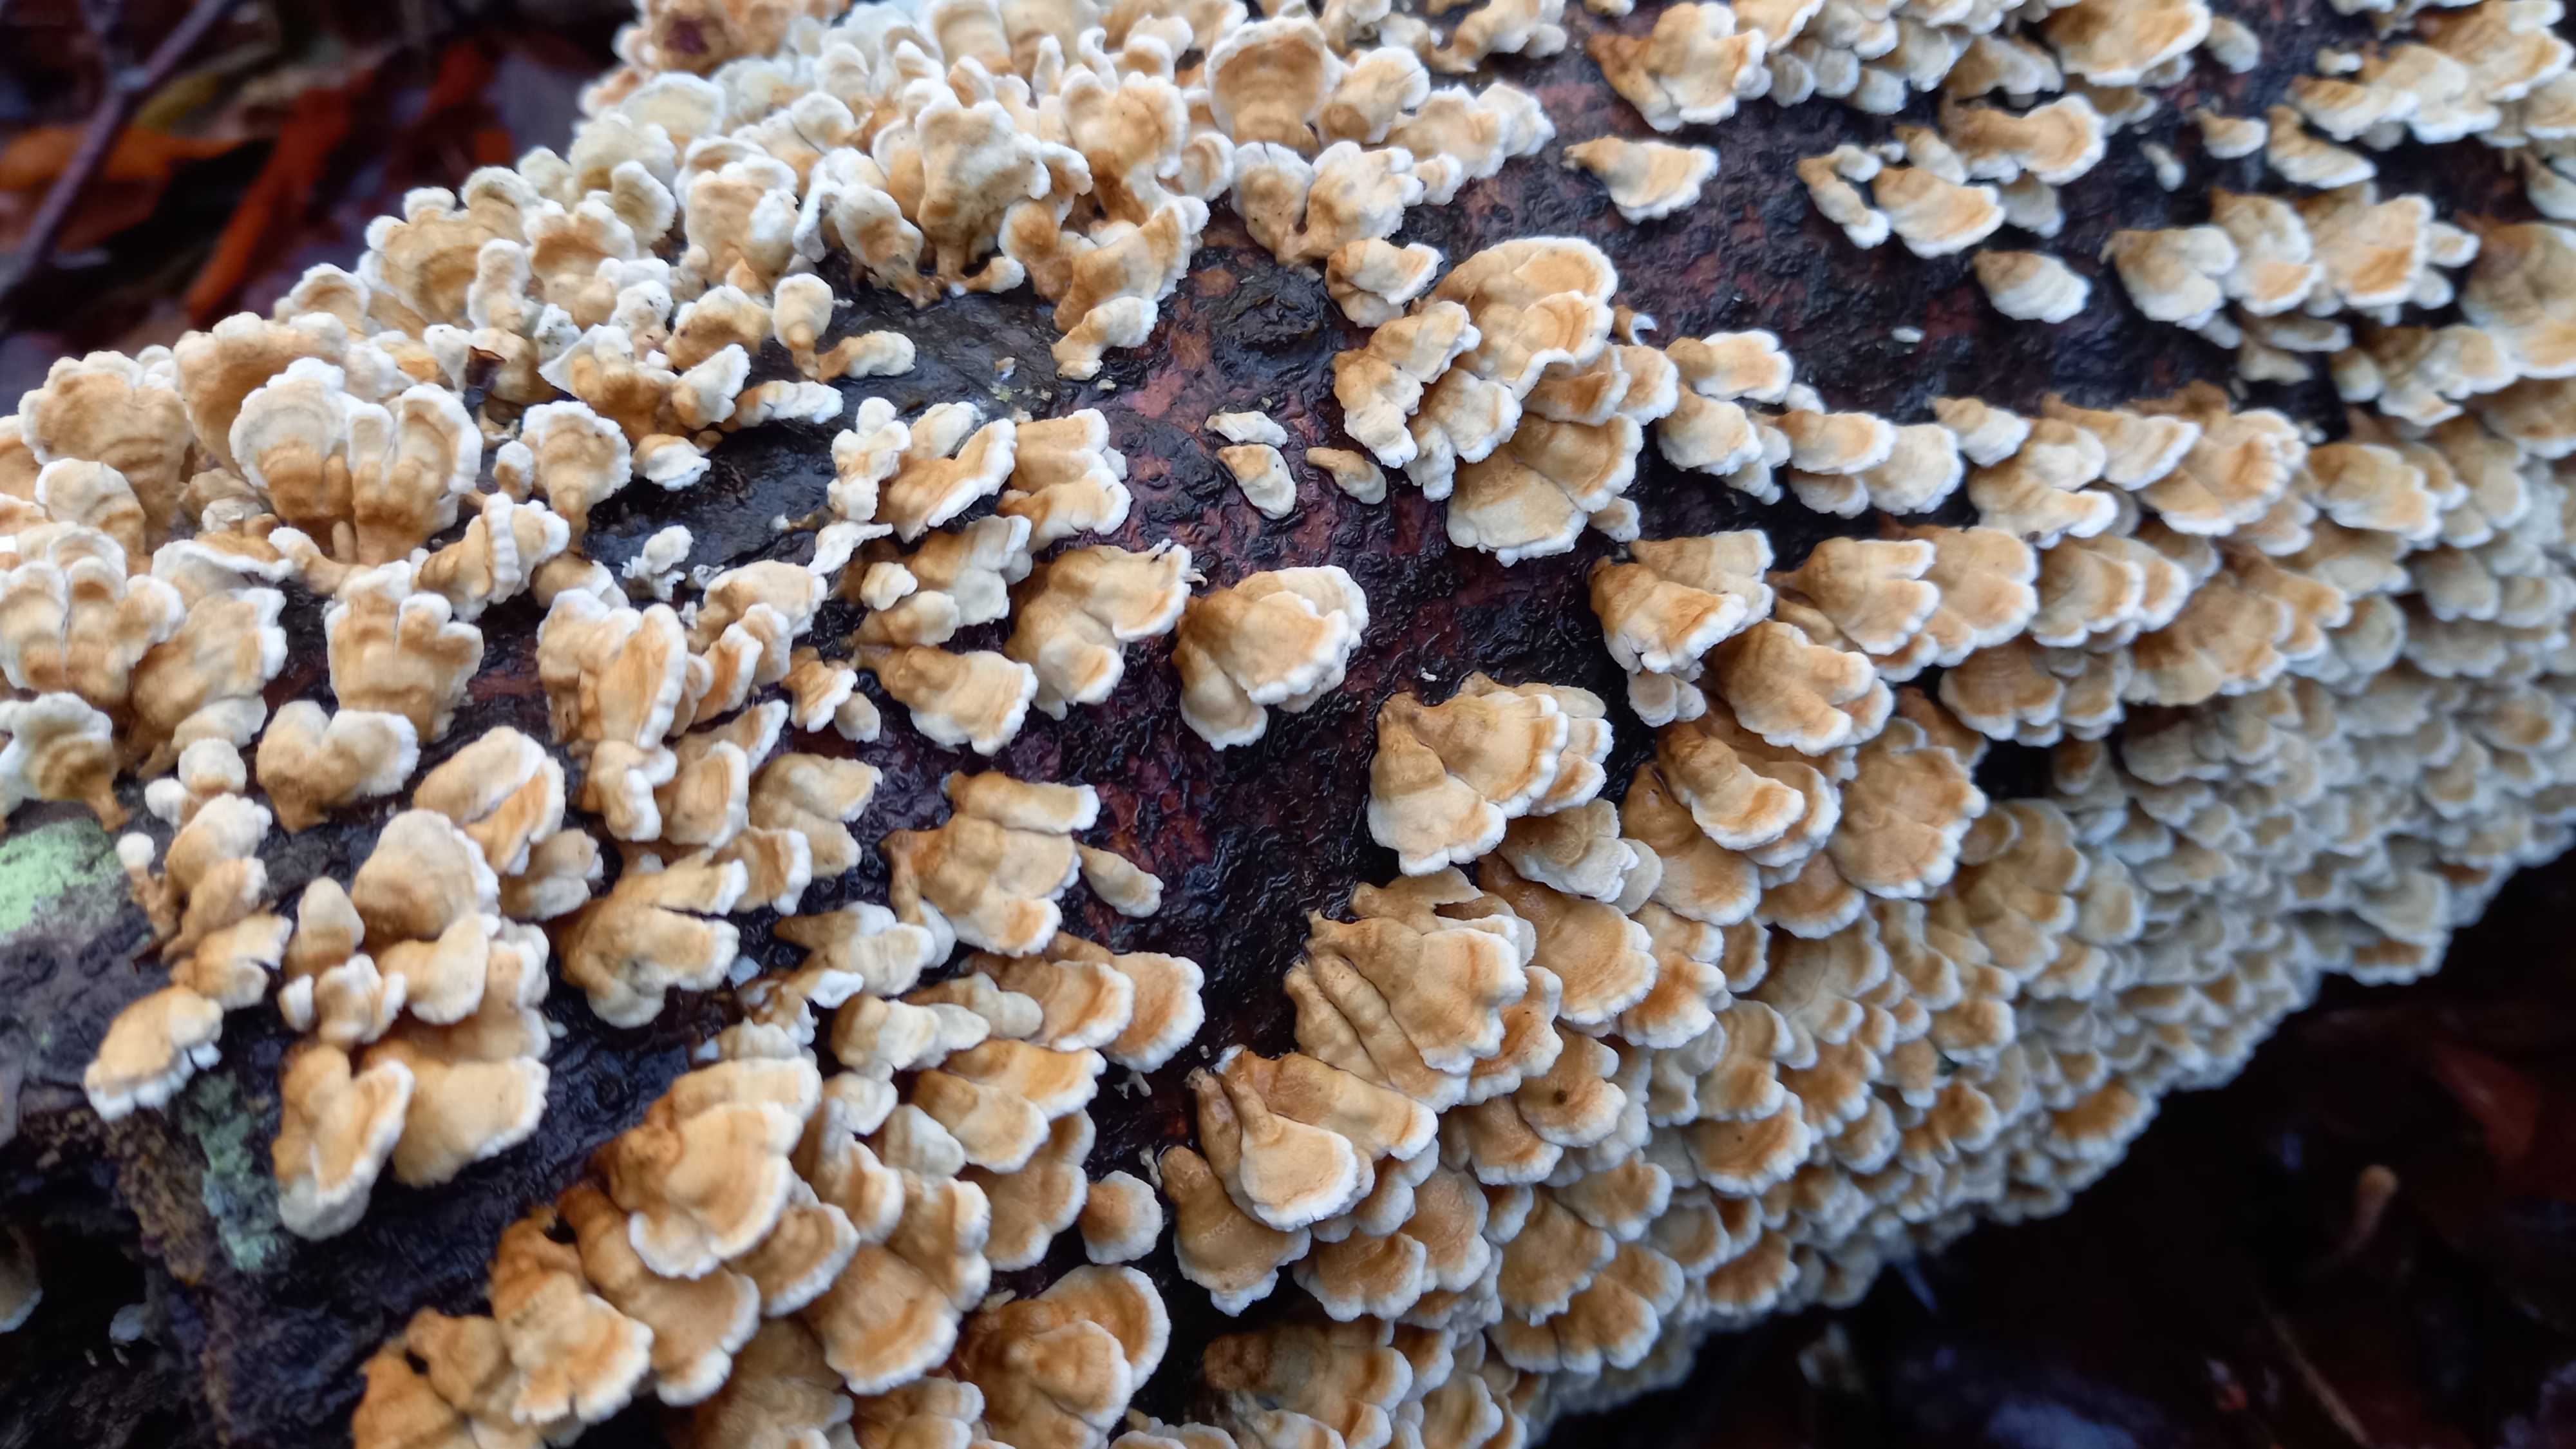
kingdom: Fungi
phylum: Basidiomycota
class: Agaricomycetes
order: Amylocorticiales
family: Amylocorticiaceae
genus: Plicaturopsis
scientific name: Plicaturopsis crispa
